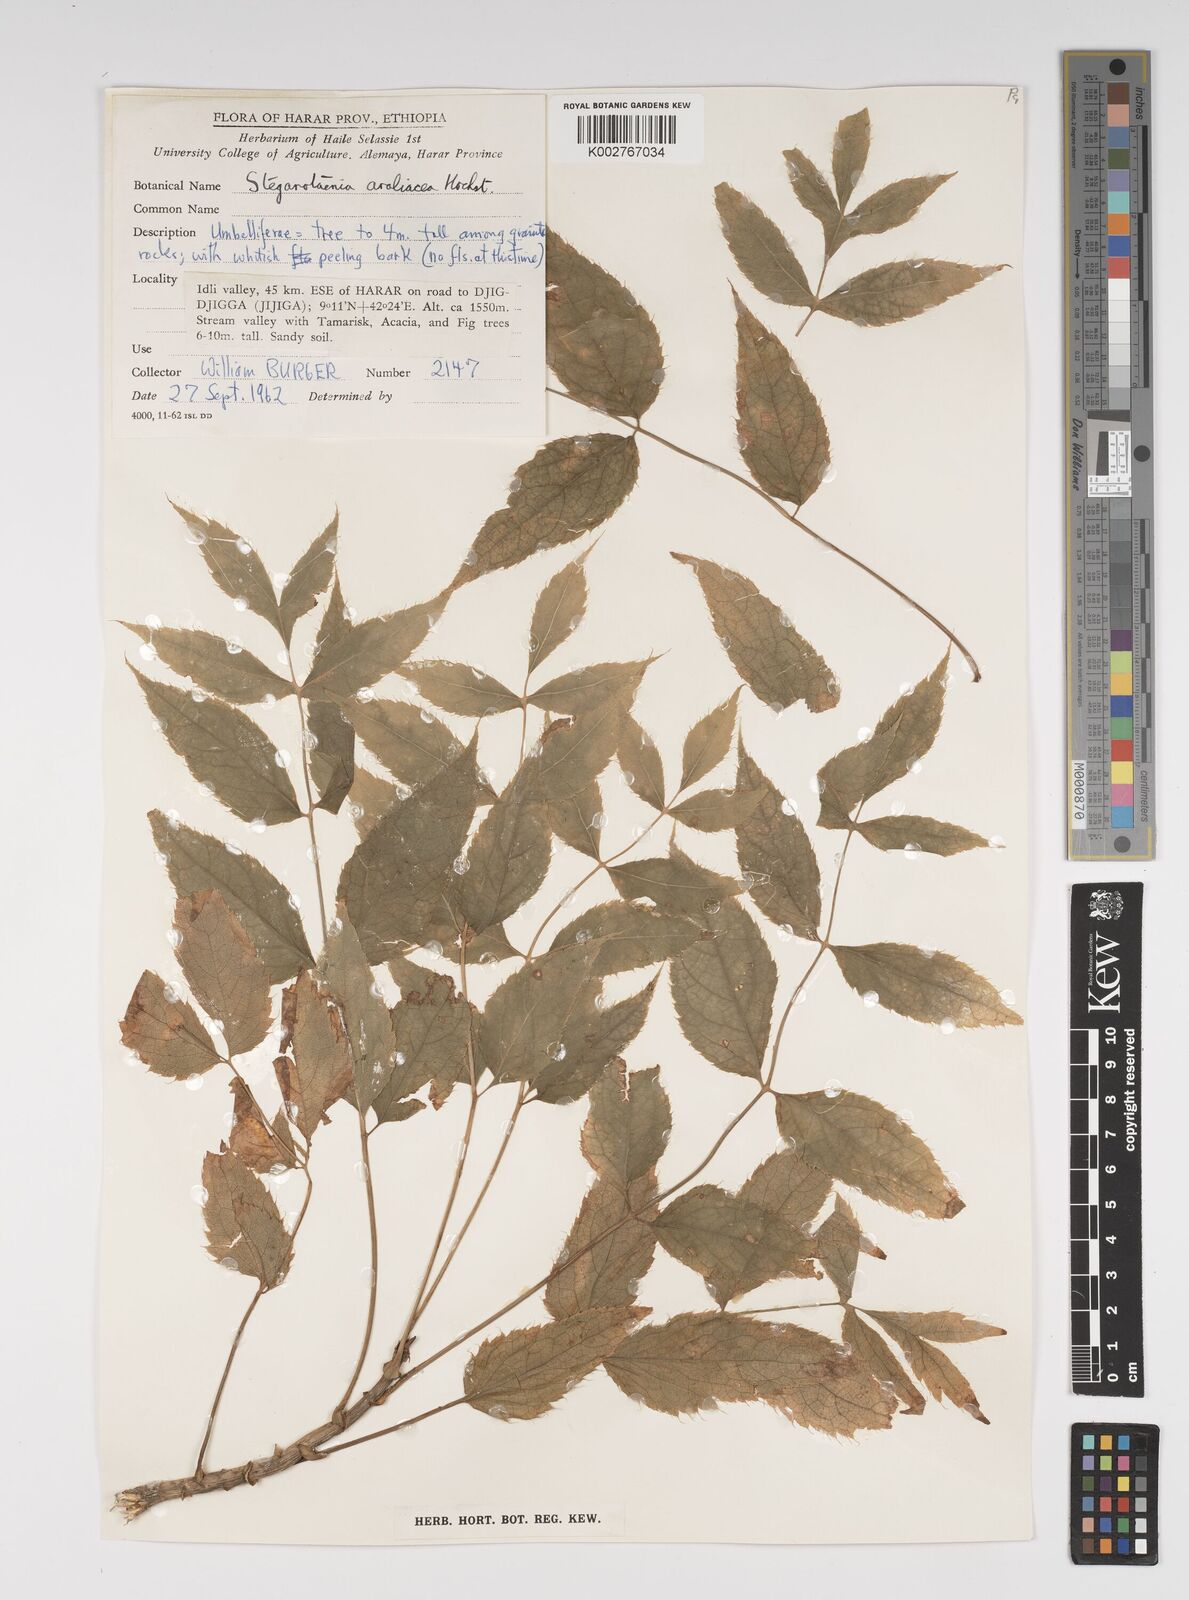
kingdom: Plantae
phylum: Tracheophyta
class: Magnoliopsida
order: Apiales
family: Apiaceae
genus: Steganotaenia
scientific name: Steganotaenia araliacea
